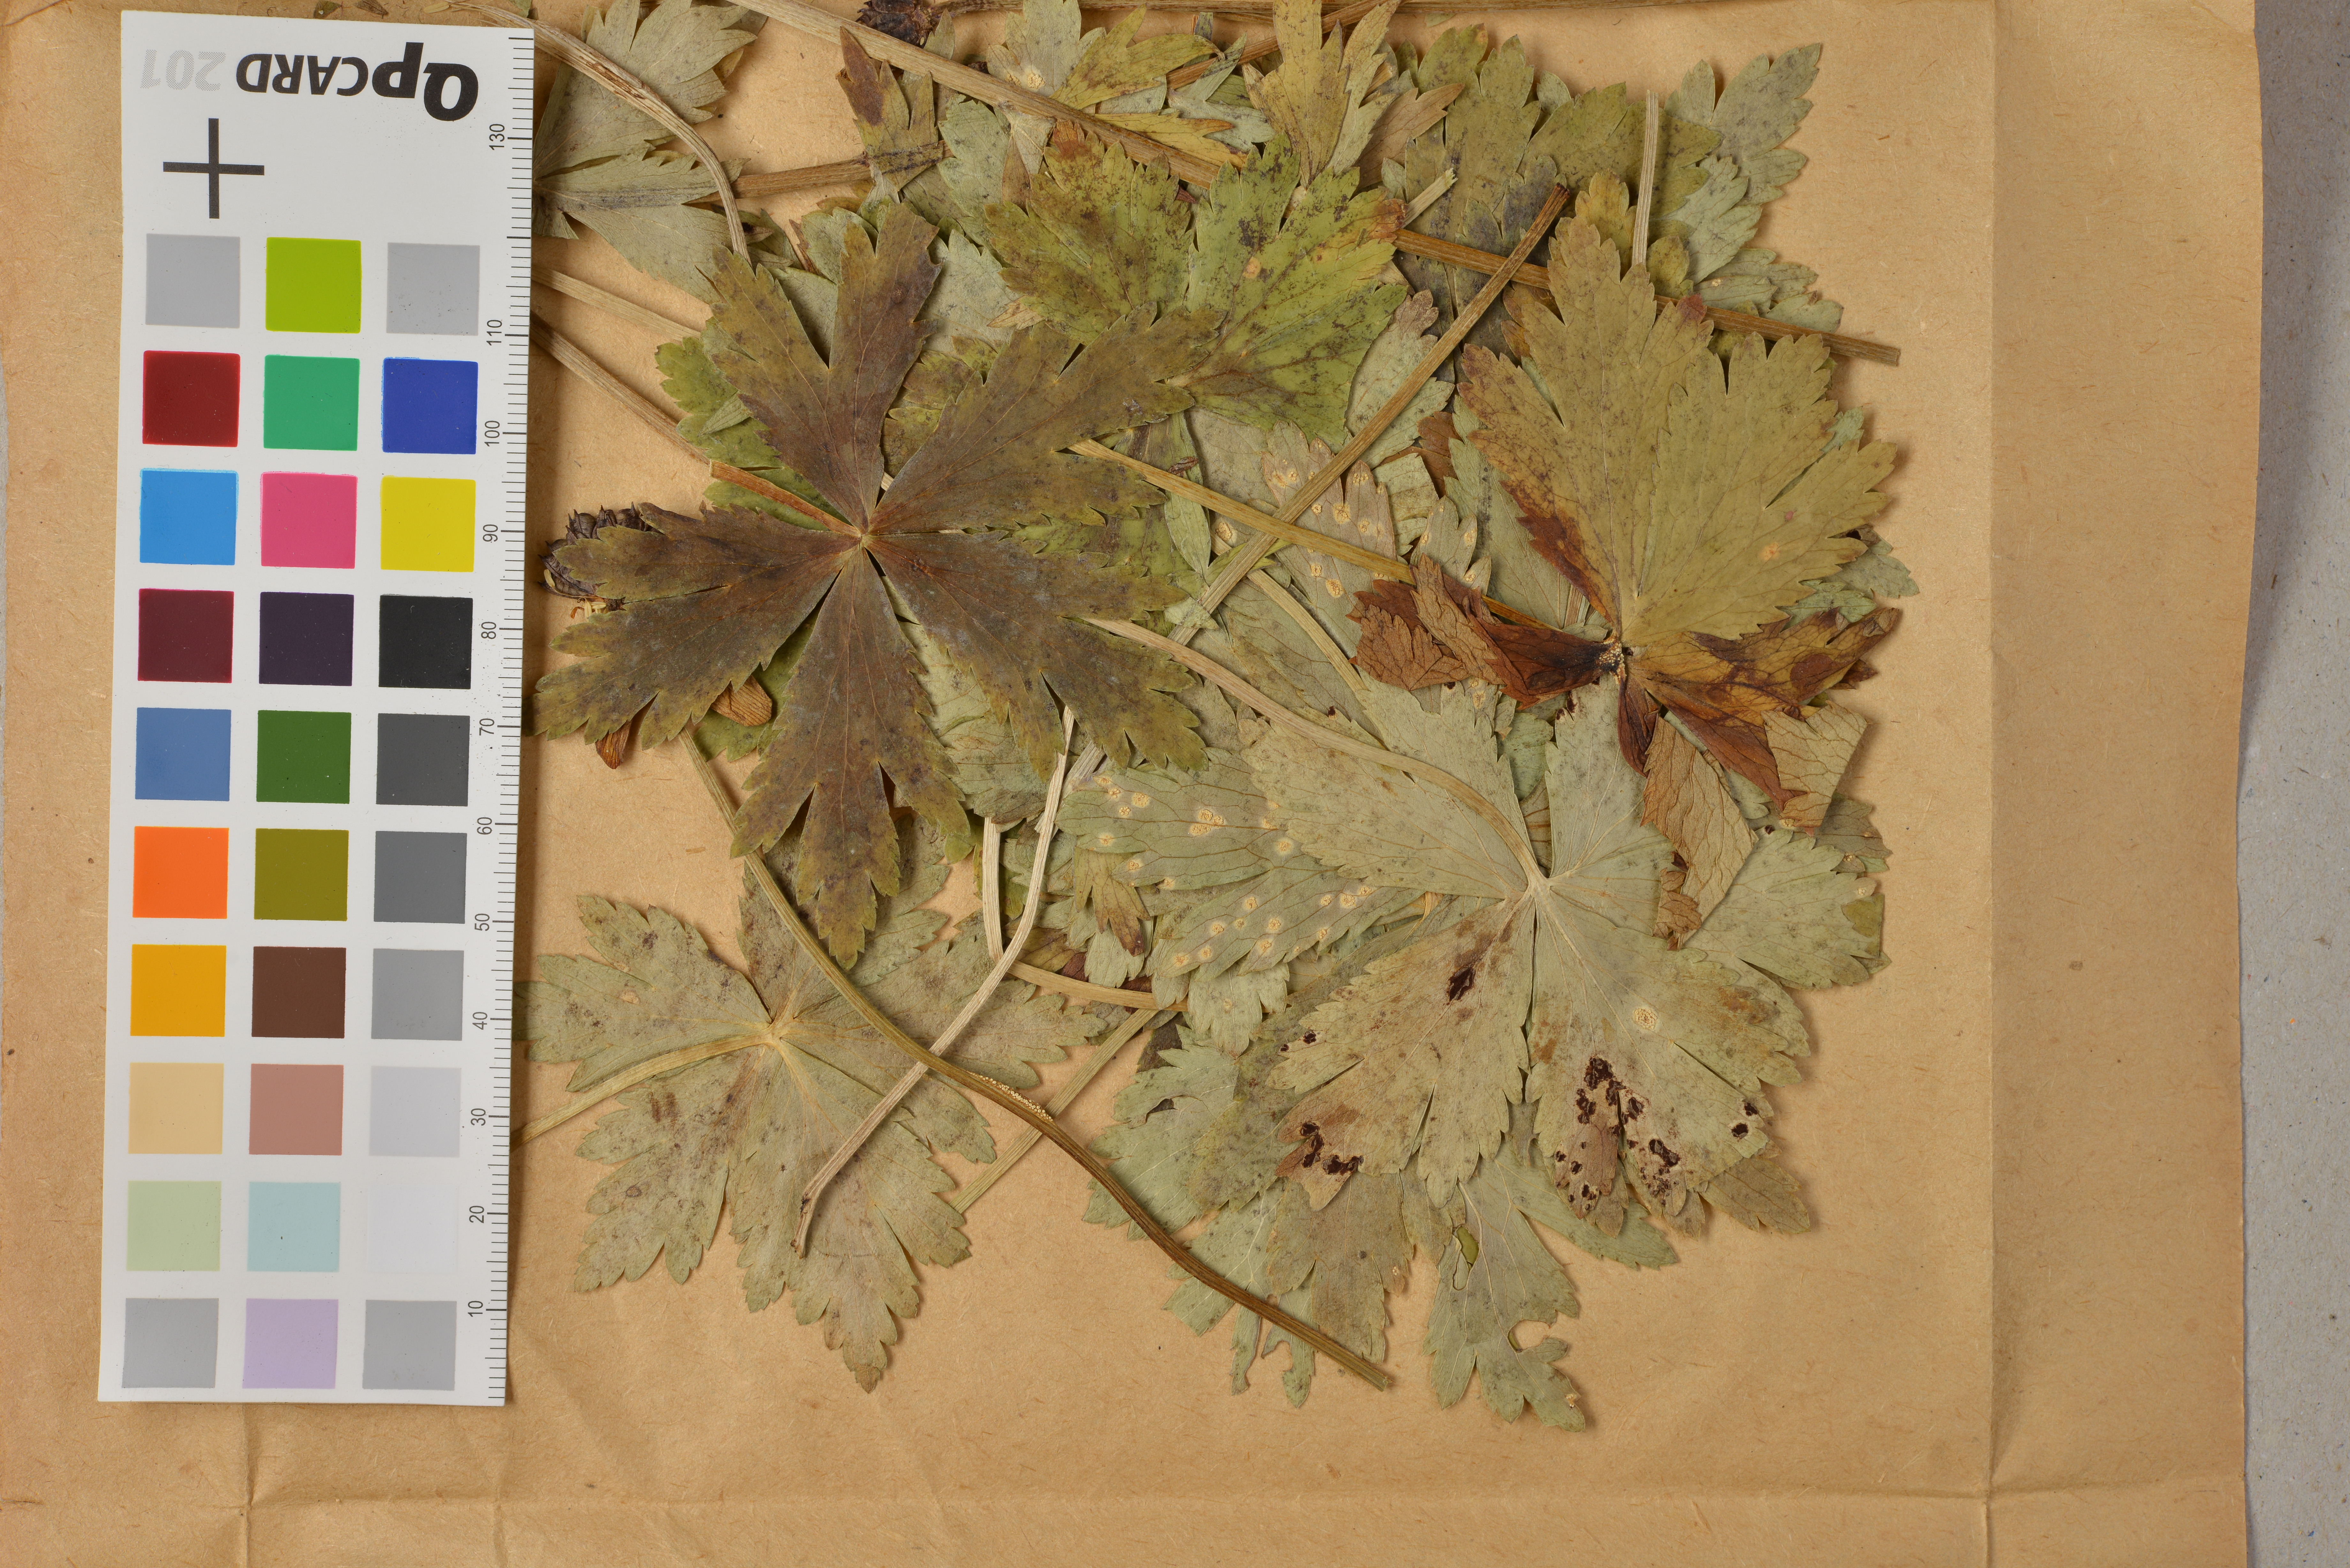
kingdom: Fungi
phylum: Basidiomycota
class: Pucciniomycetes
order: Pucciniales
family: Pucciniaceae
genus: Puccinia
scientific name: Puccinia trollii
